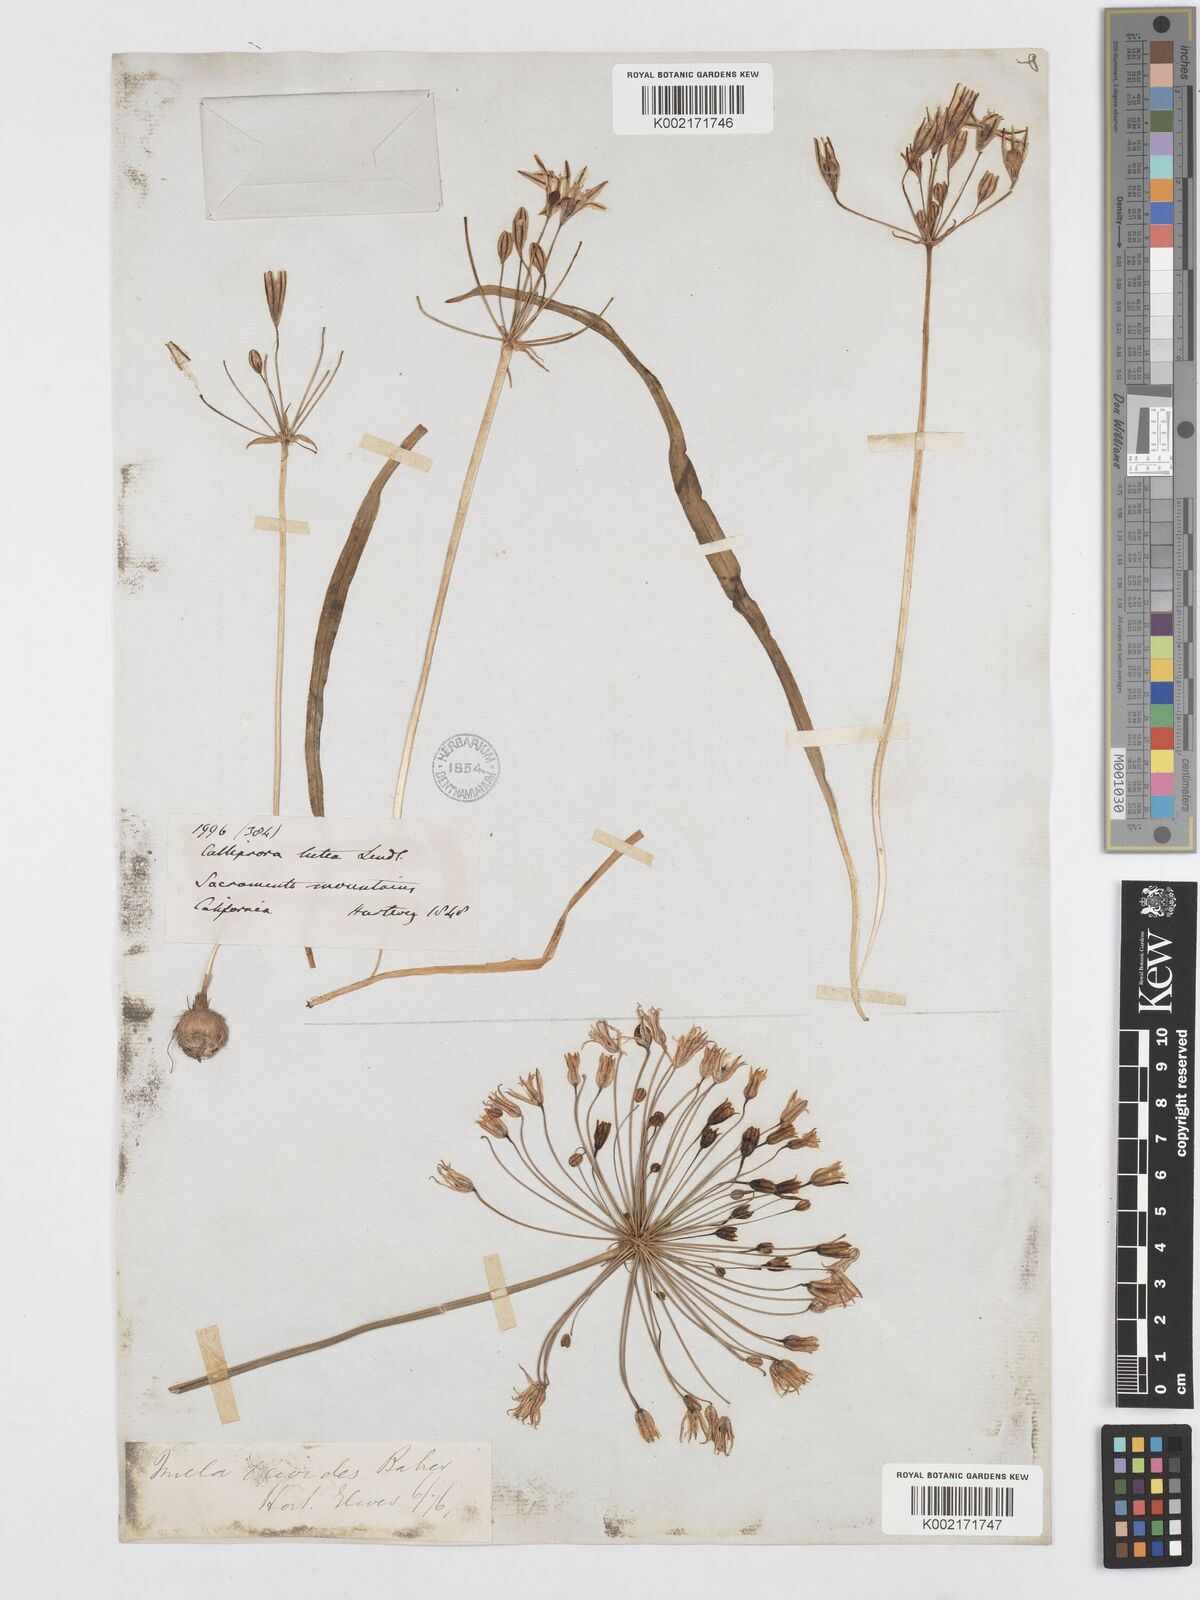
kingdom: Plantae
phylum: Tracheophyta
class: Liliopsida
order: Asparagales
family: Asparagaceae
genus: Triteleia
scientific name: Triteleia ixioides
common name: Yellow-brodiaea
